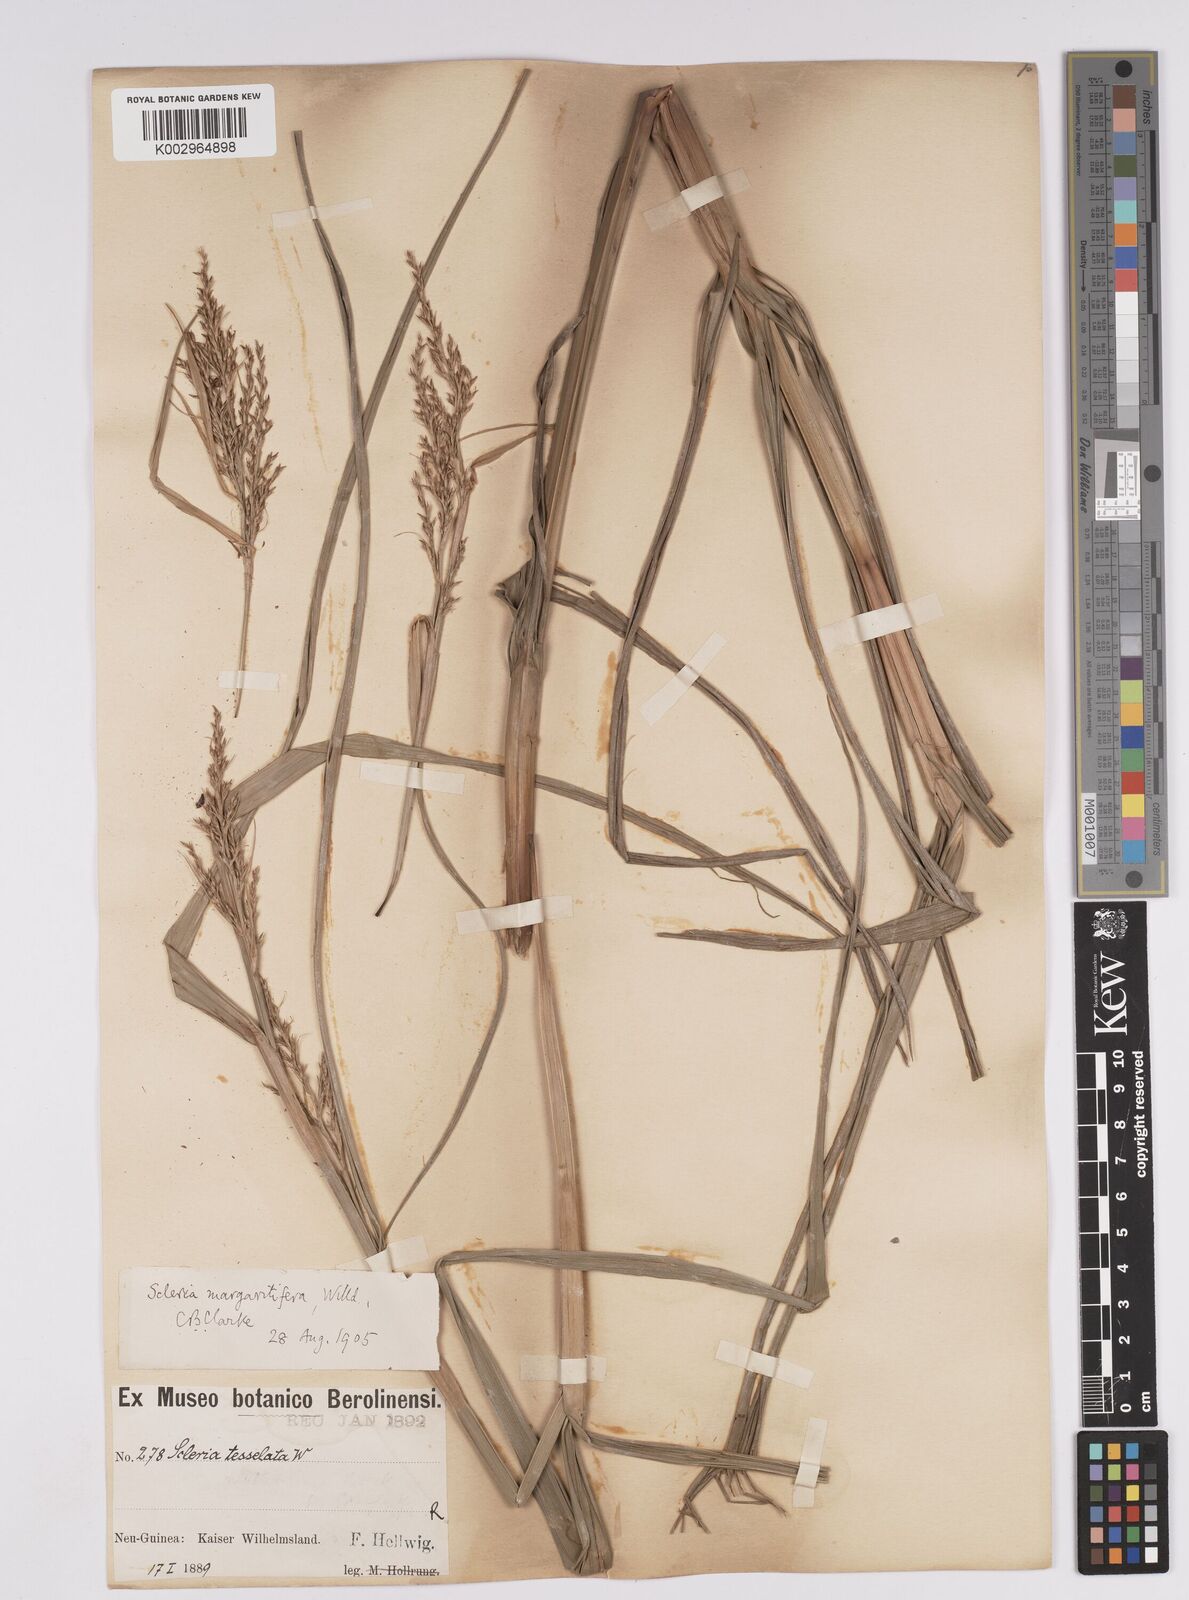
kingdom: Plantae
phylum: Tracheophyta
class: Liliopsida
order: Poales
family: Cyperaceae
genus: Scleria
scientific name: Scleria polycarpa
